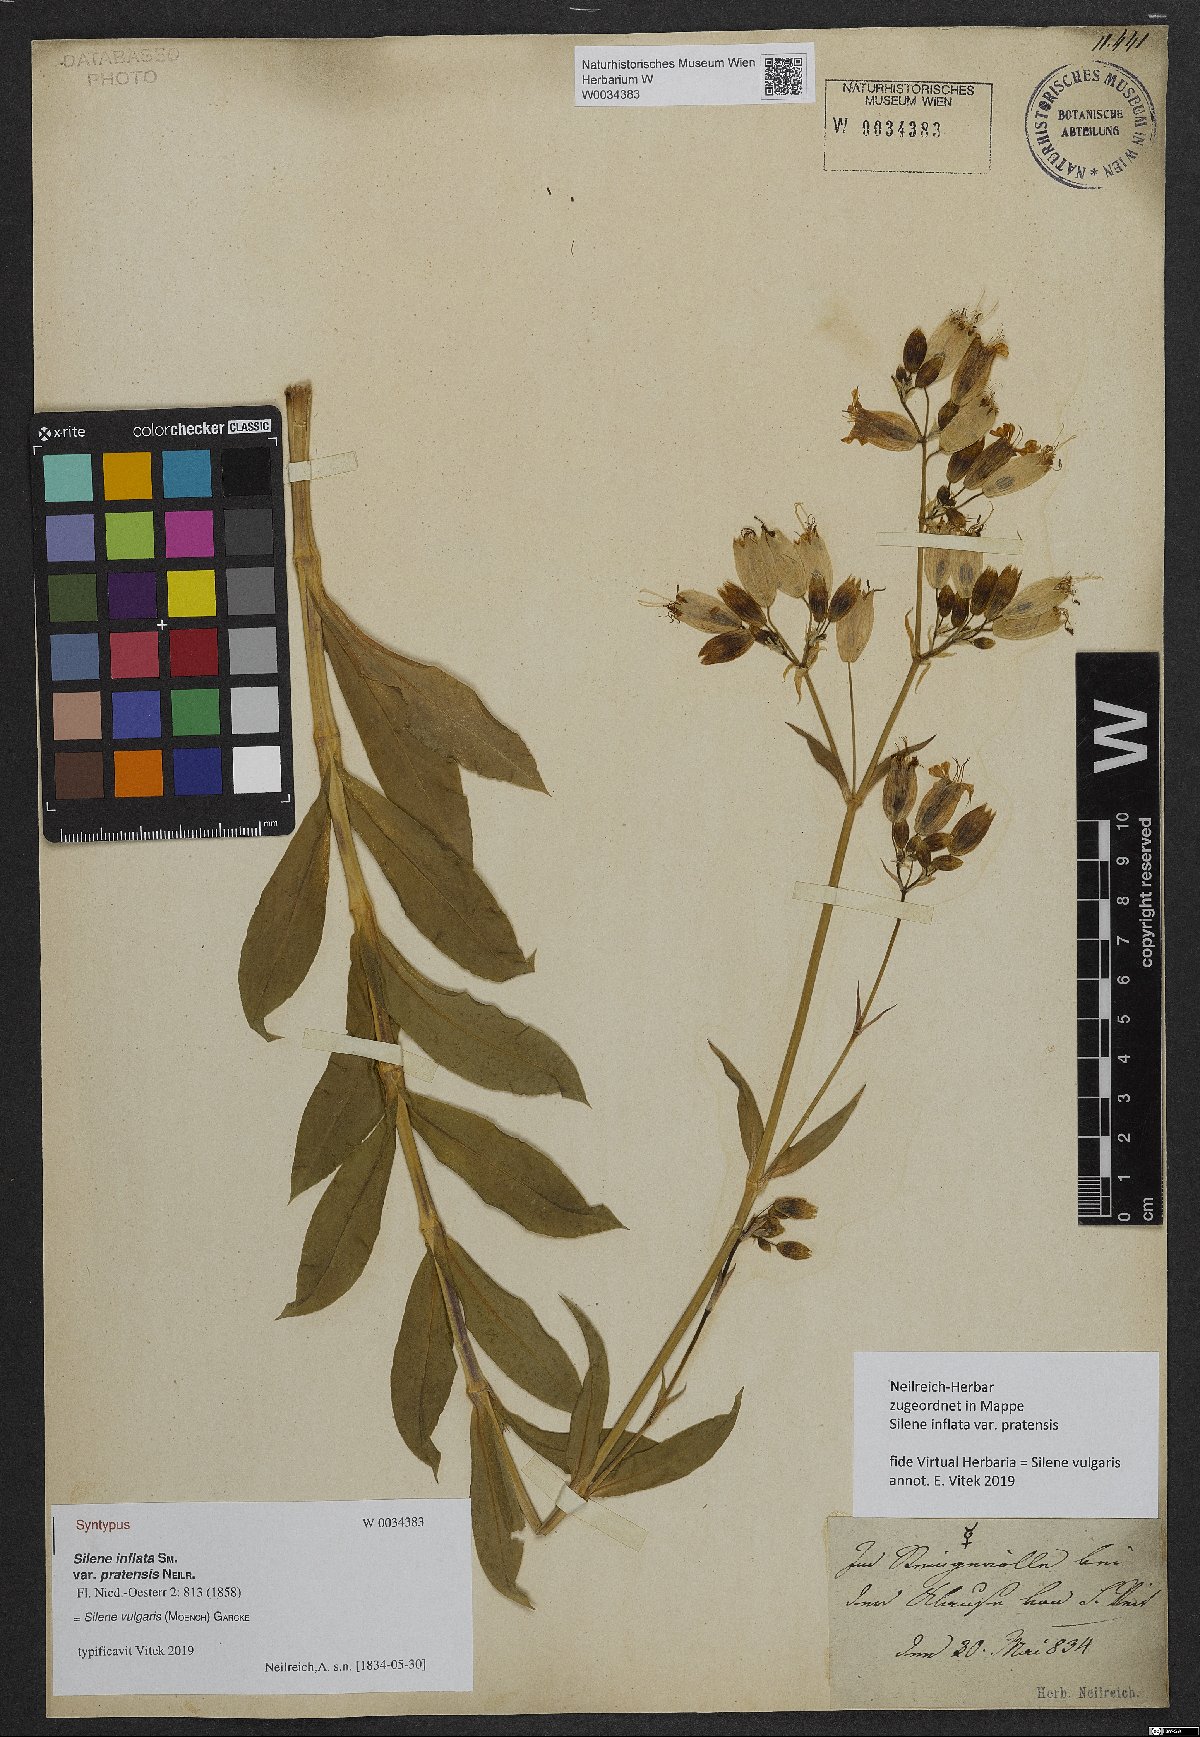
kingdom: Plantae
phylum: Tracheophyta
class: Magnoliopsida
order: Caryophyllales
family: Caryophyllaceae
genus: Silene
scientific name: Silene vulgaris
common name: Bladder campion
